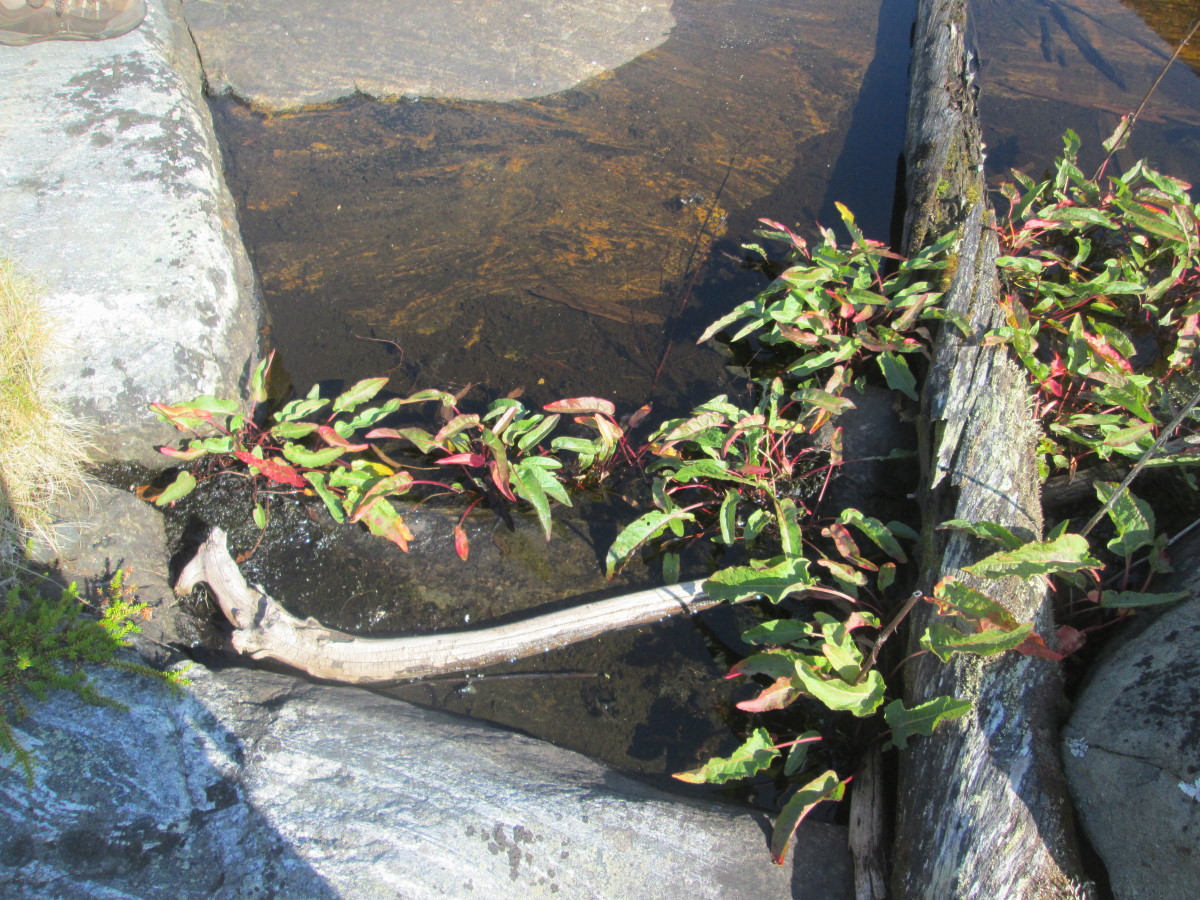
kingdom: Plantae
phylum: Tracheophyta
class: Magnoliopsida
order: Caryophyllales
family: Polygonaceae
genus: Rumex
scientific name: Rumex maritimus
